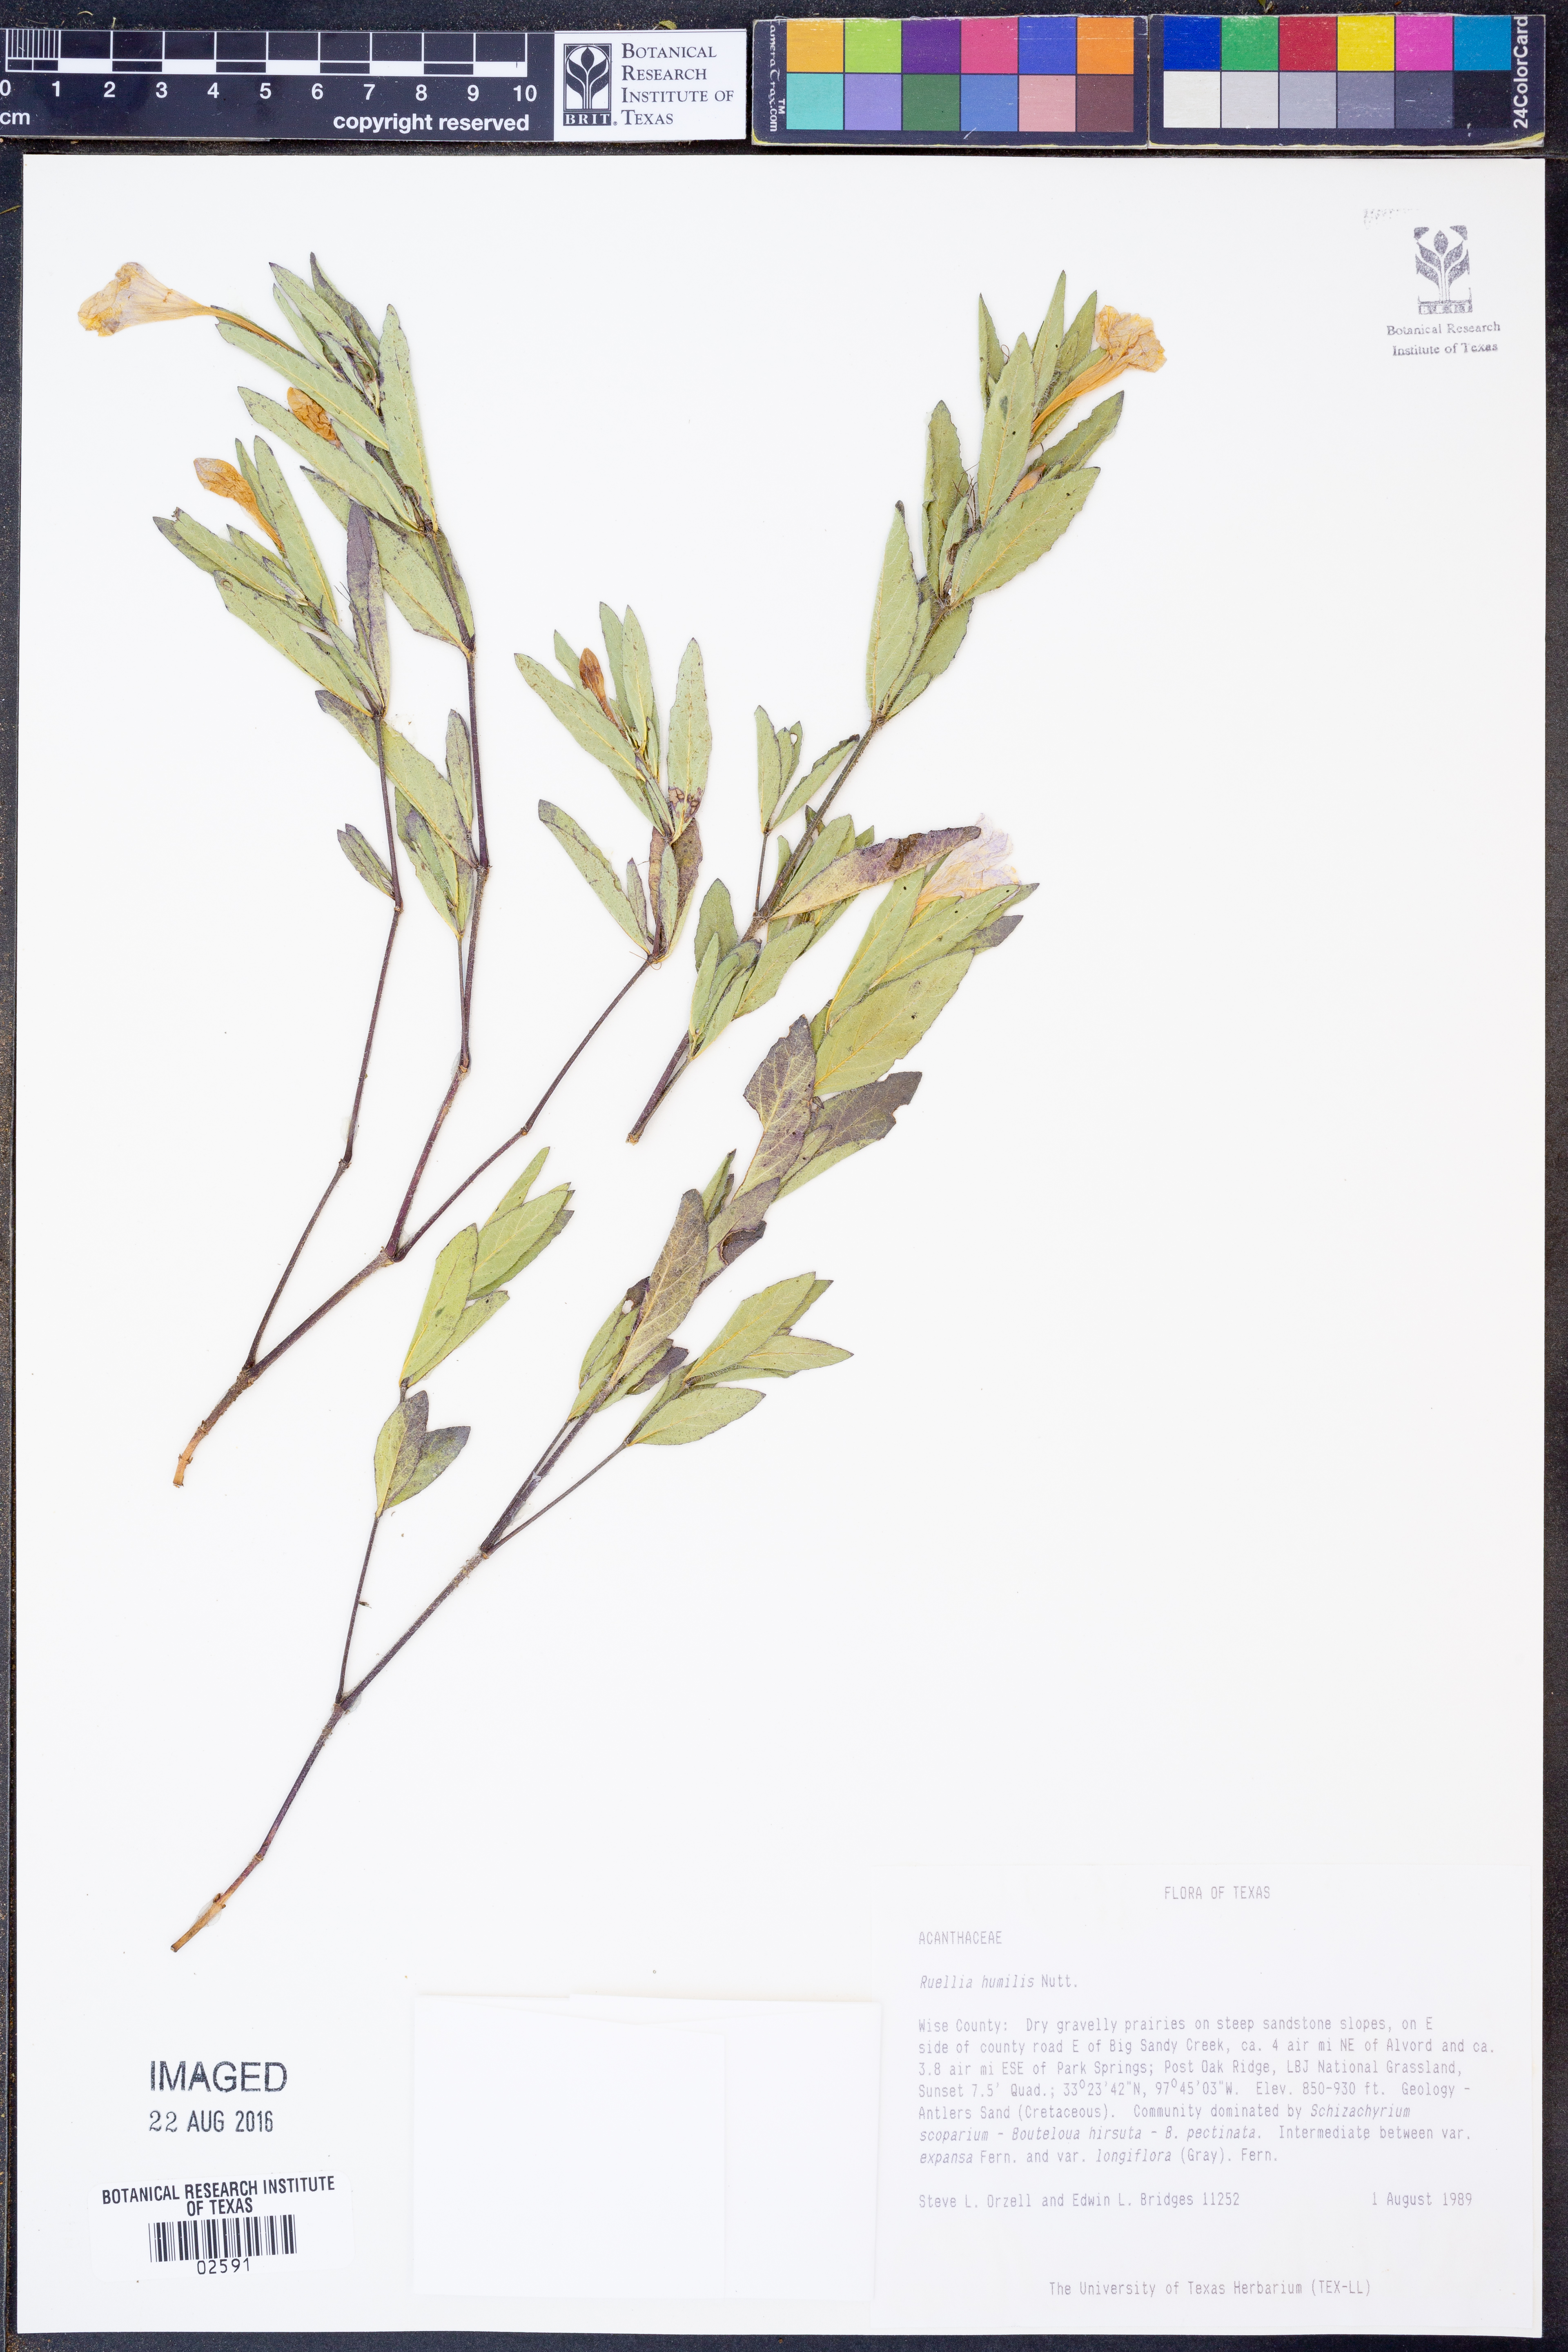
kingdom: Plantae
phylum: Tracheophyta
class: Magnoliopsida
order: Lamiales
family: Acanthaceae
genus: Ruellia
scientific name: Ruellia humilis
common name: Fringe-leaf ruellia
